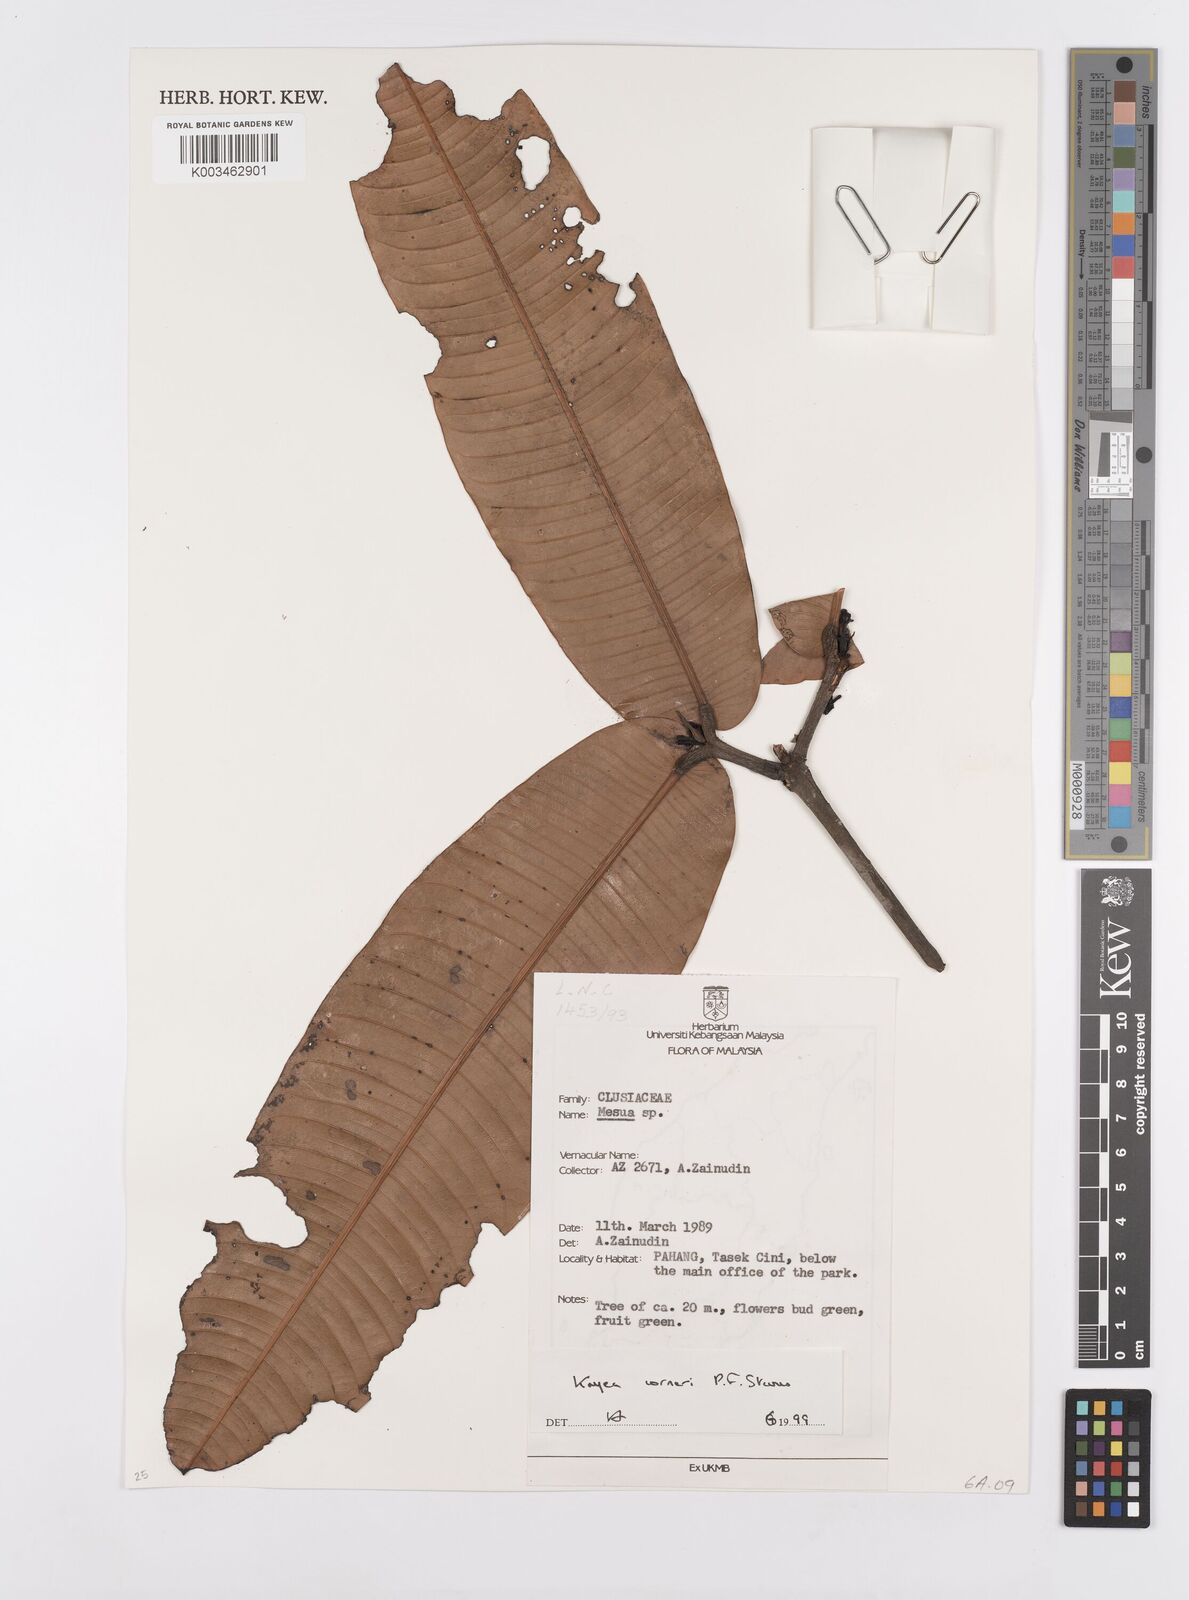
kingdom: Plantae
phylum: Tracheophyta
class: Magnoliopsida
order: Malpighiales
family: Calophyllaceae
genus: Kayea
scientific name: Kayea
